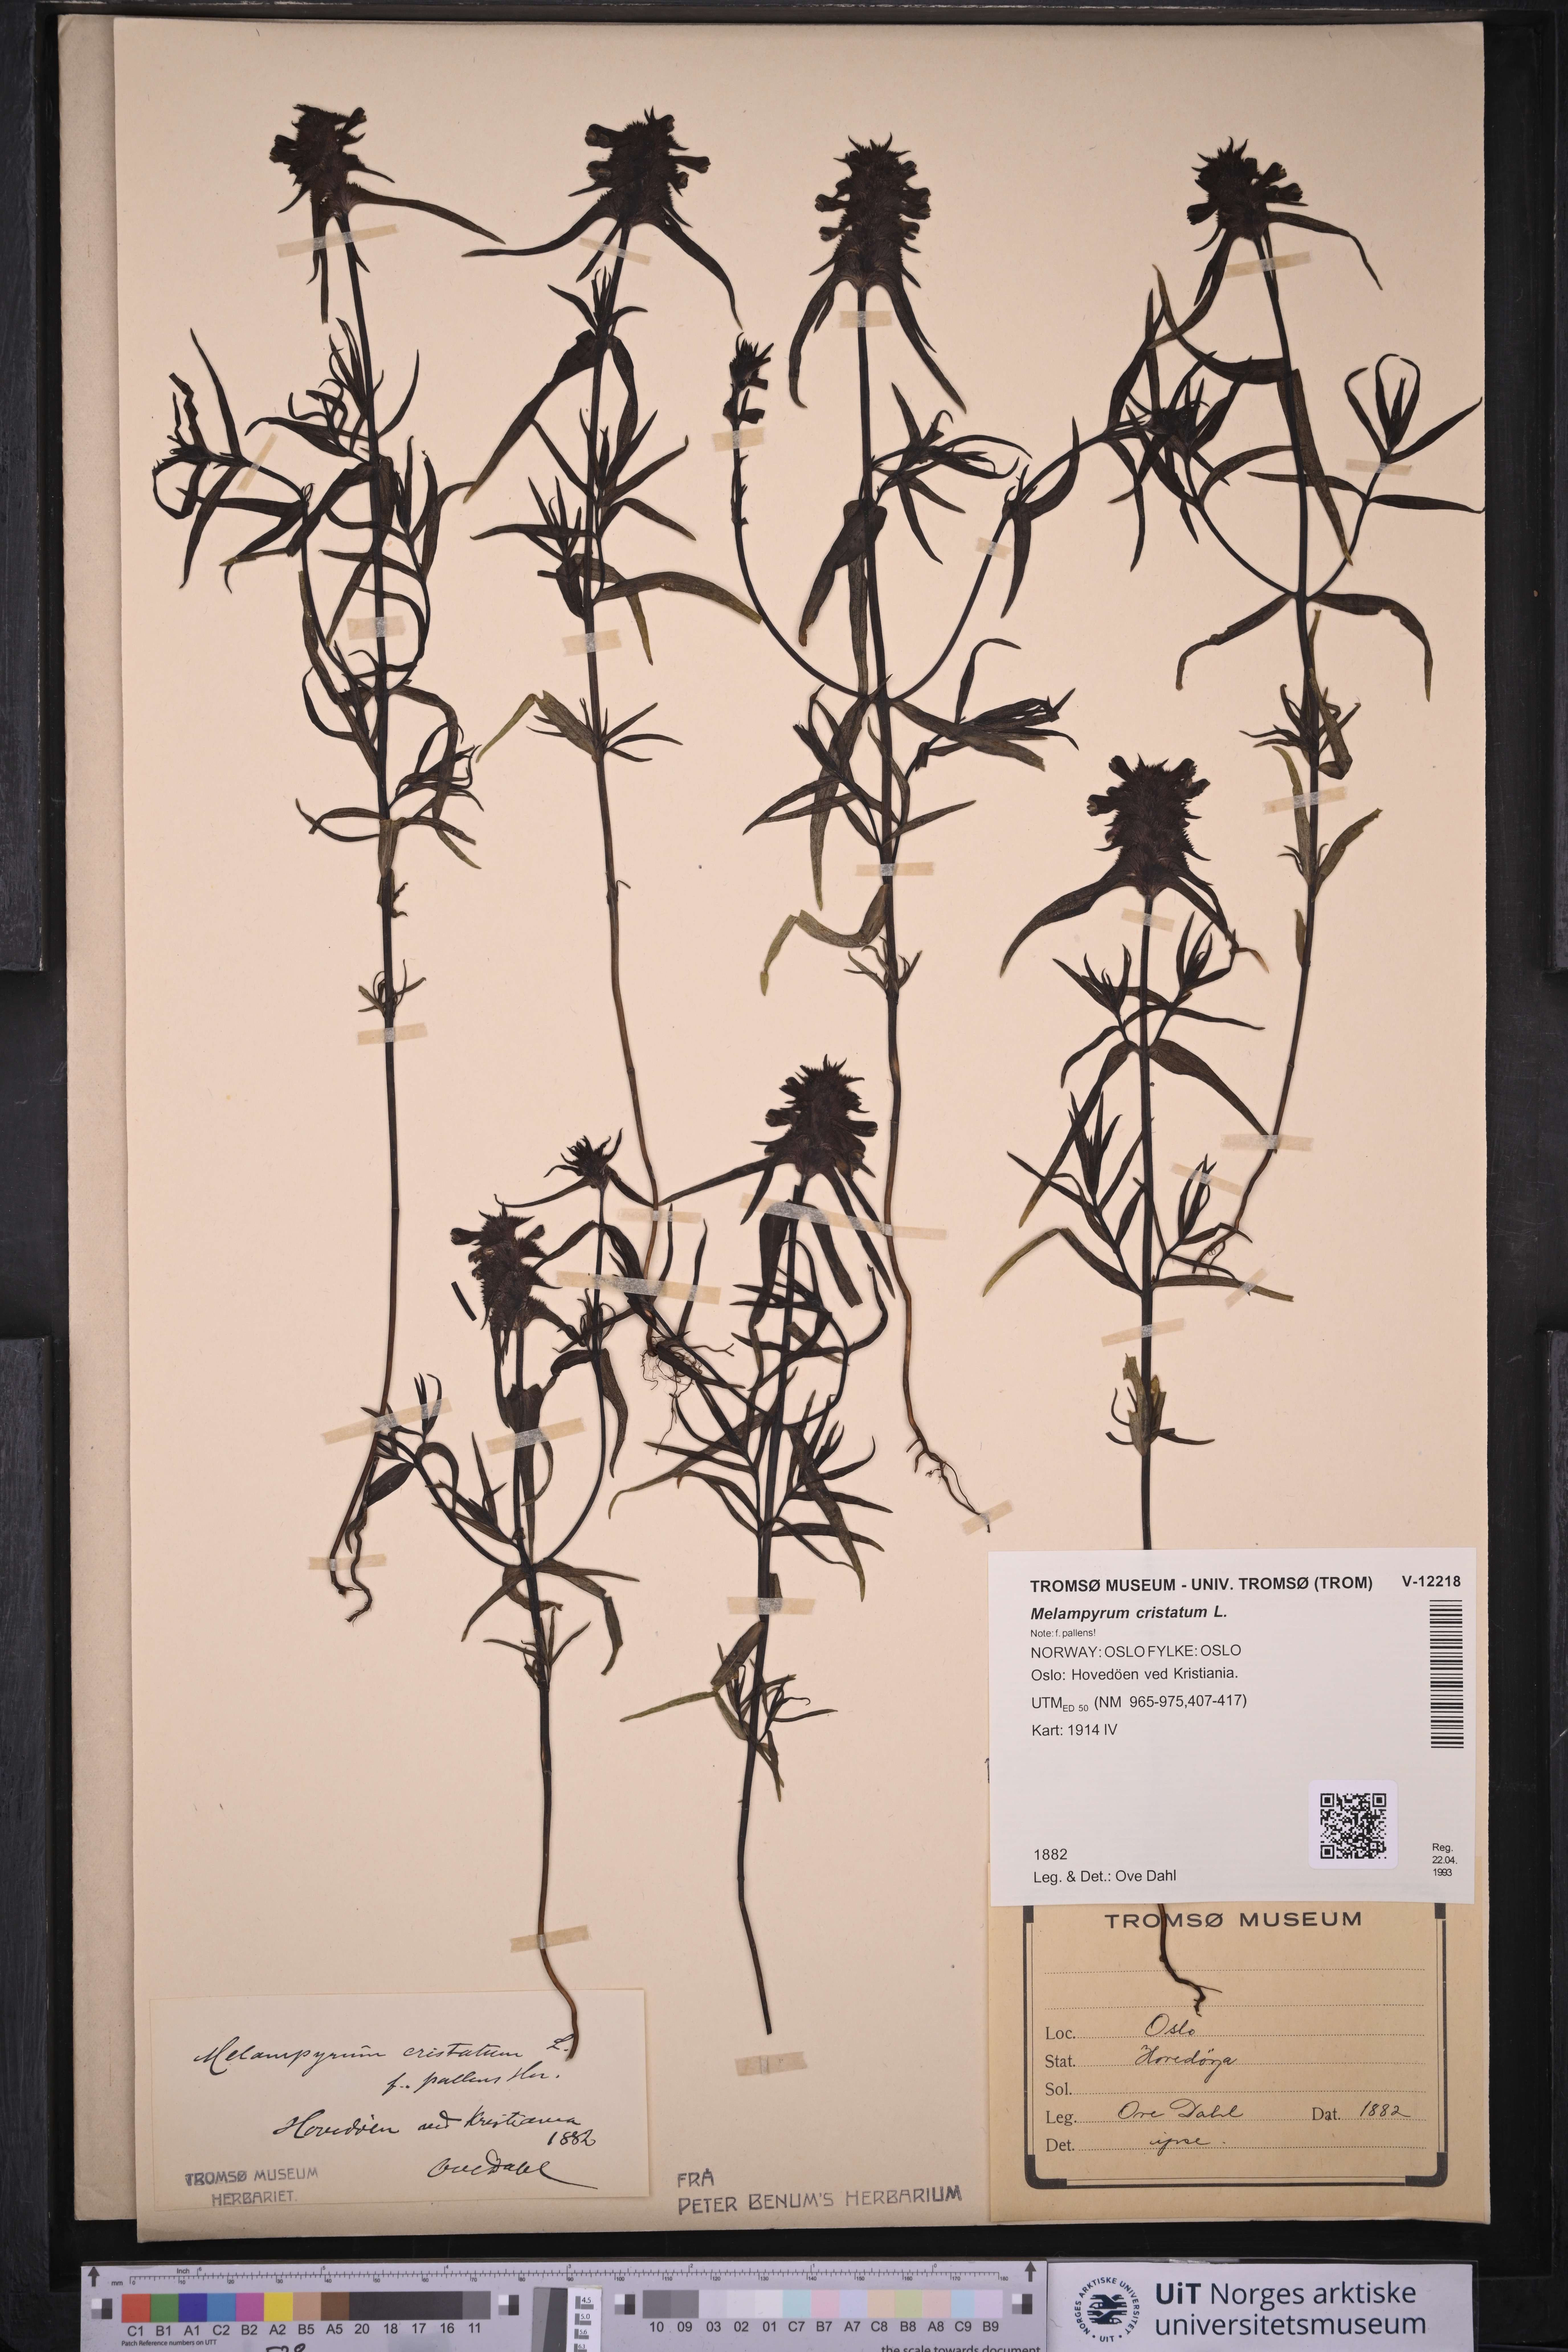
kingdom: Plantae
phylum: Tracheophyta
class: Magnoliopsida
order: Lamiales
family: Orobanchaceae
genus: Melampyrum
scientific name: Melampyrum cristatum
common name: Crested cow-wheat
